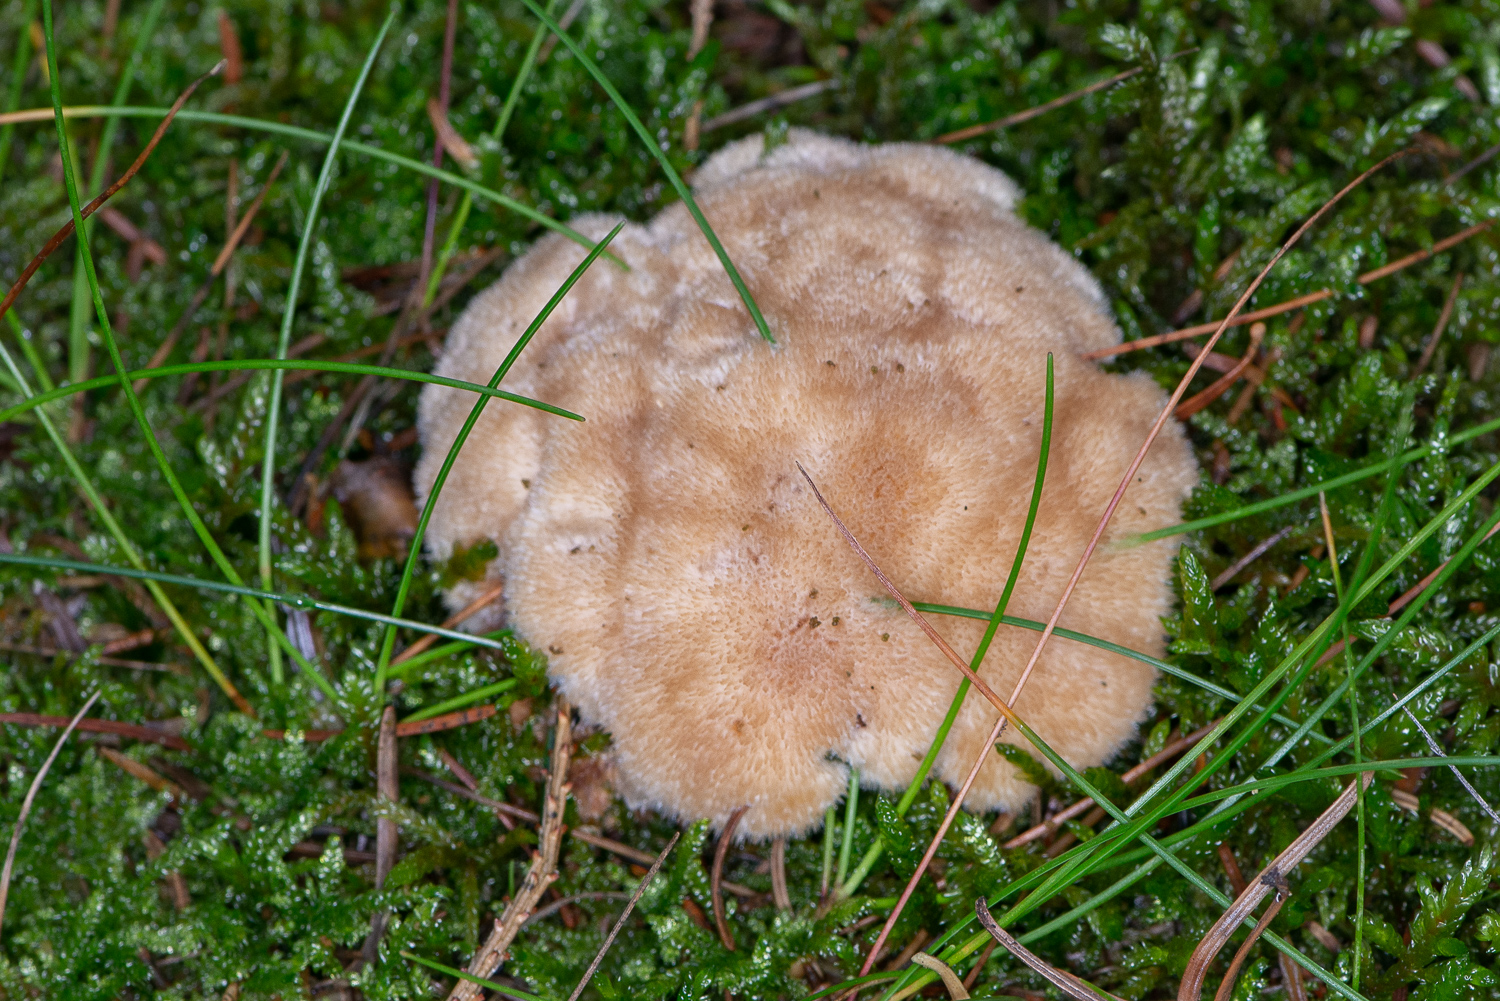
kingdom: Fungi
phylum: Basidiomycota
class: Agaricomycetes
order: Polyporales
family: Dacryobolaceae
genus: Postia
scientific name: Postia ptychogaster
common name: støvende kødporesvamp
